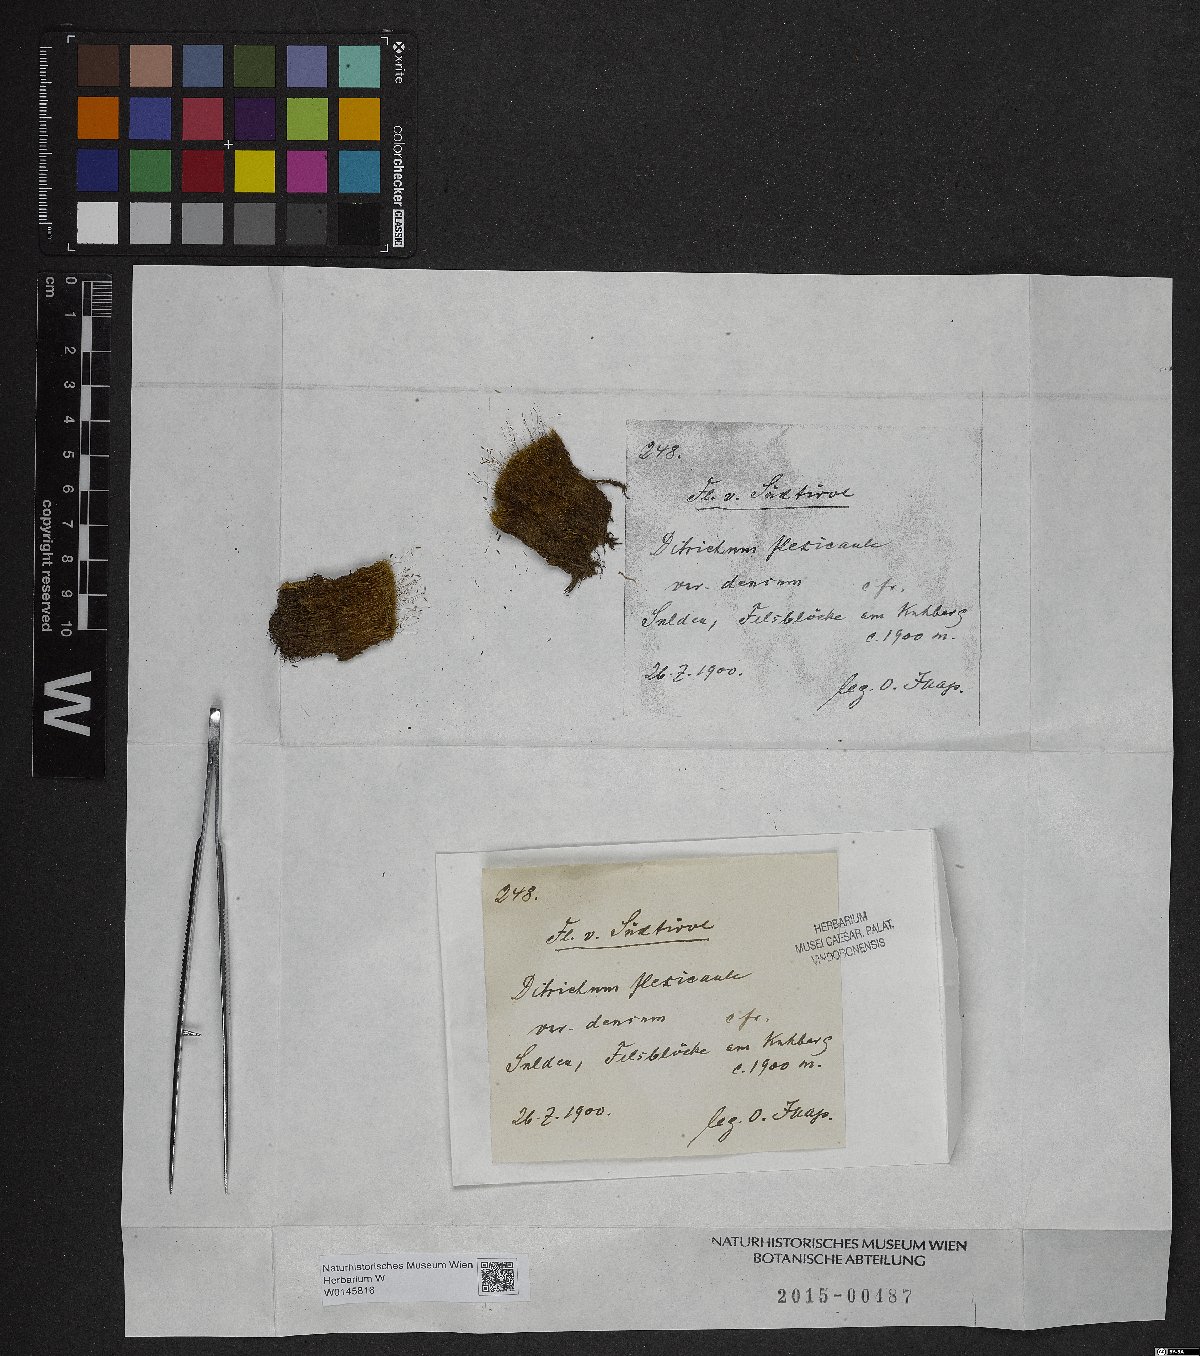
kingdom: Plantae
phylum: Bryophyta
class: Bryopsida
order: Scouleriales
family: Flexitrichaceae
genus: Flexitrichum
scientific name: Flexitrichum flexicaule
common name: Bendy ditrichum
